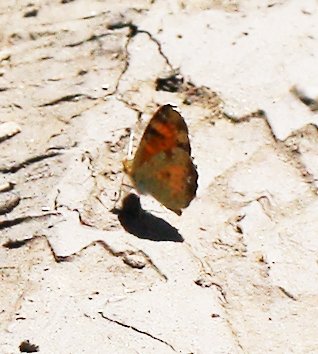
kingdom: Animalia
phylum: Arthropoda
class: Insecta
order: Lepidoptera
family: Nymphalidae
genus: Phyciodes
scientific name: Phyciodes tharos
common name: Northern Crescent
